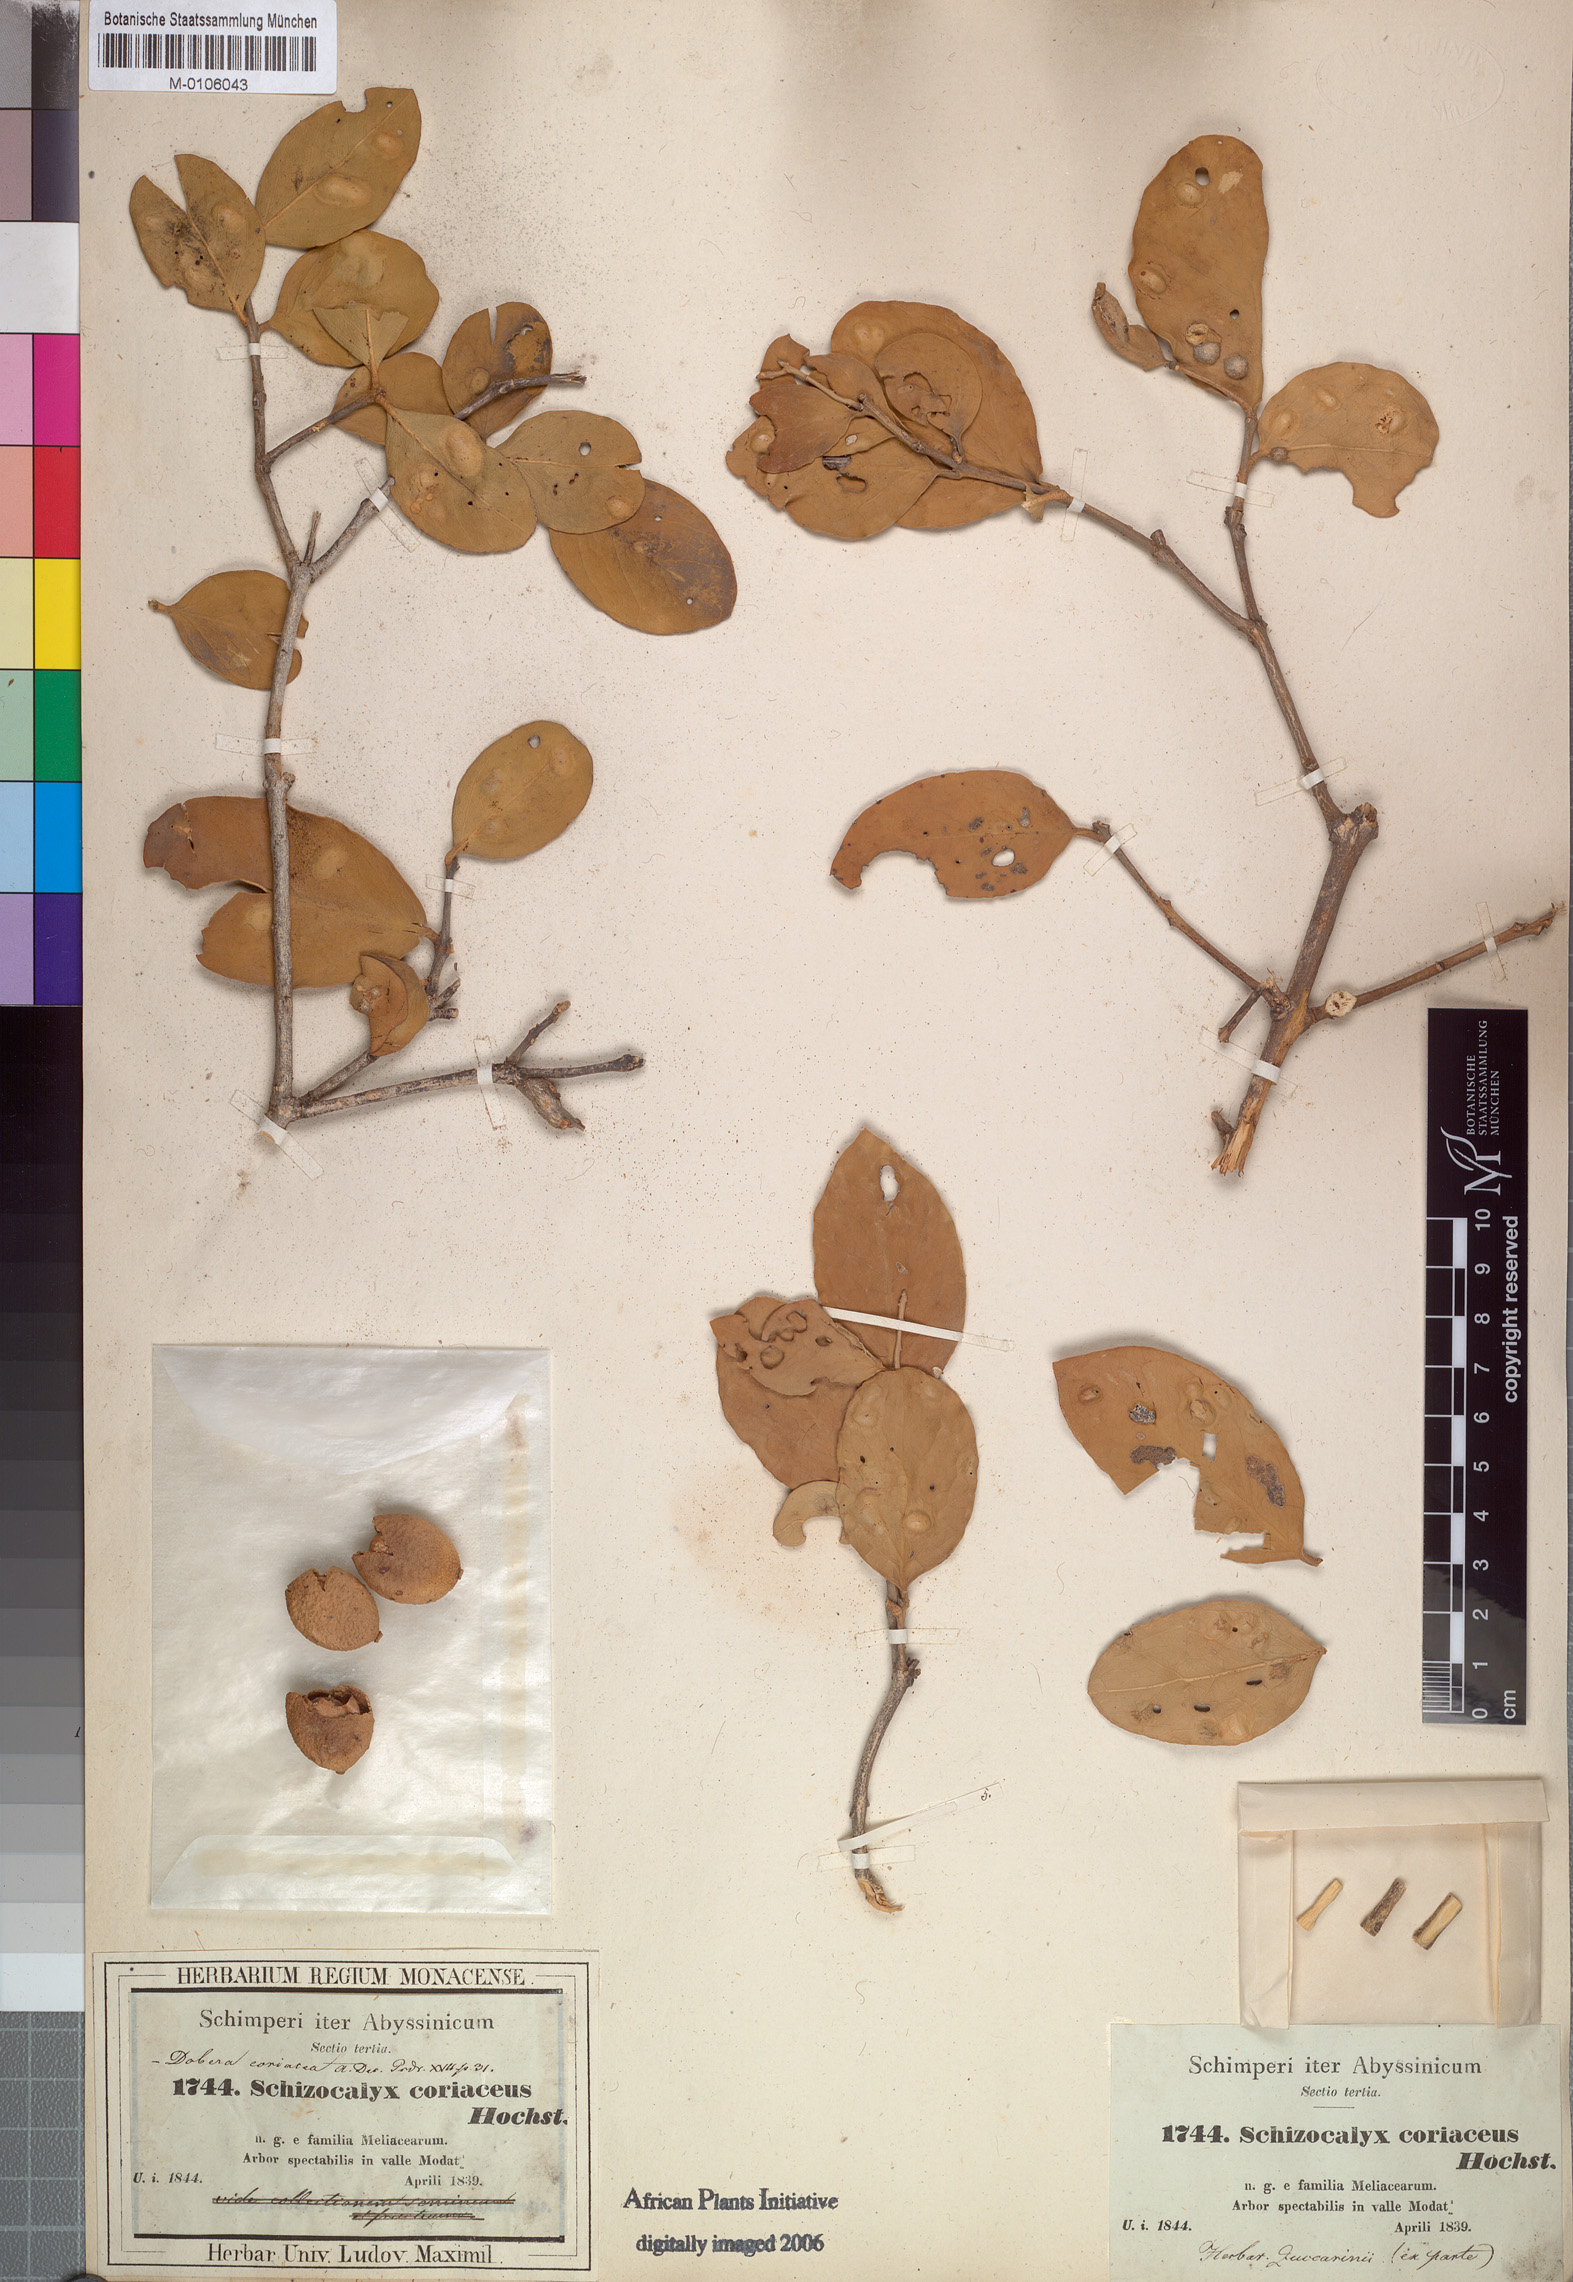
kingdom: Plantae
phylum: Tracheophyta
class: Magnoliopsida
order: Brassicales
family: Salvadoraceae
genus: Dobera
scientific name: Dobera glabra
